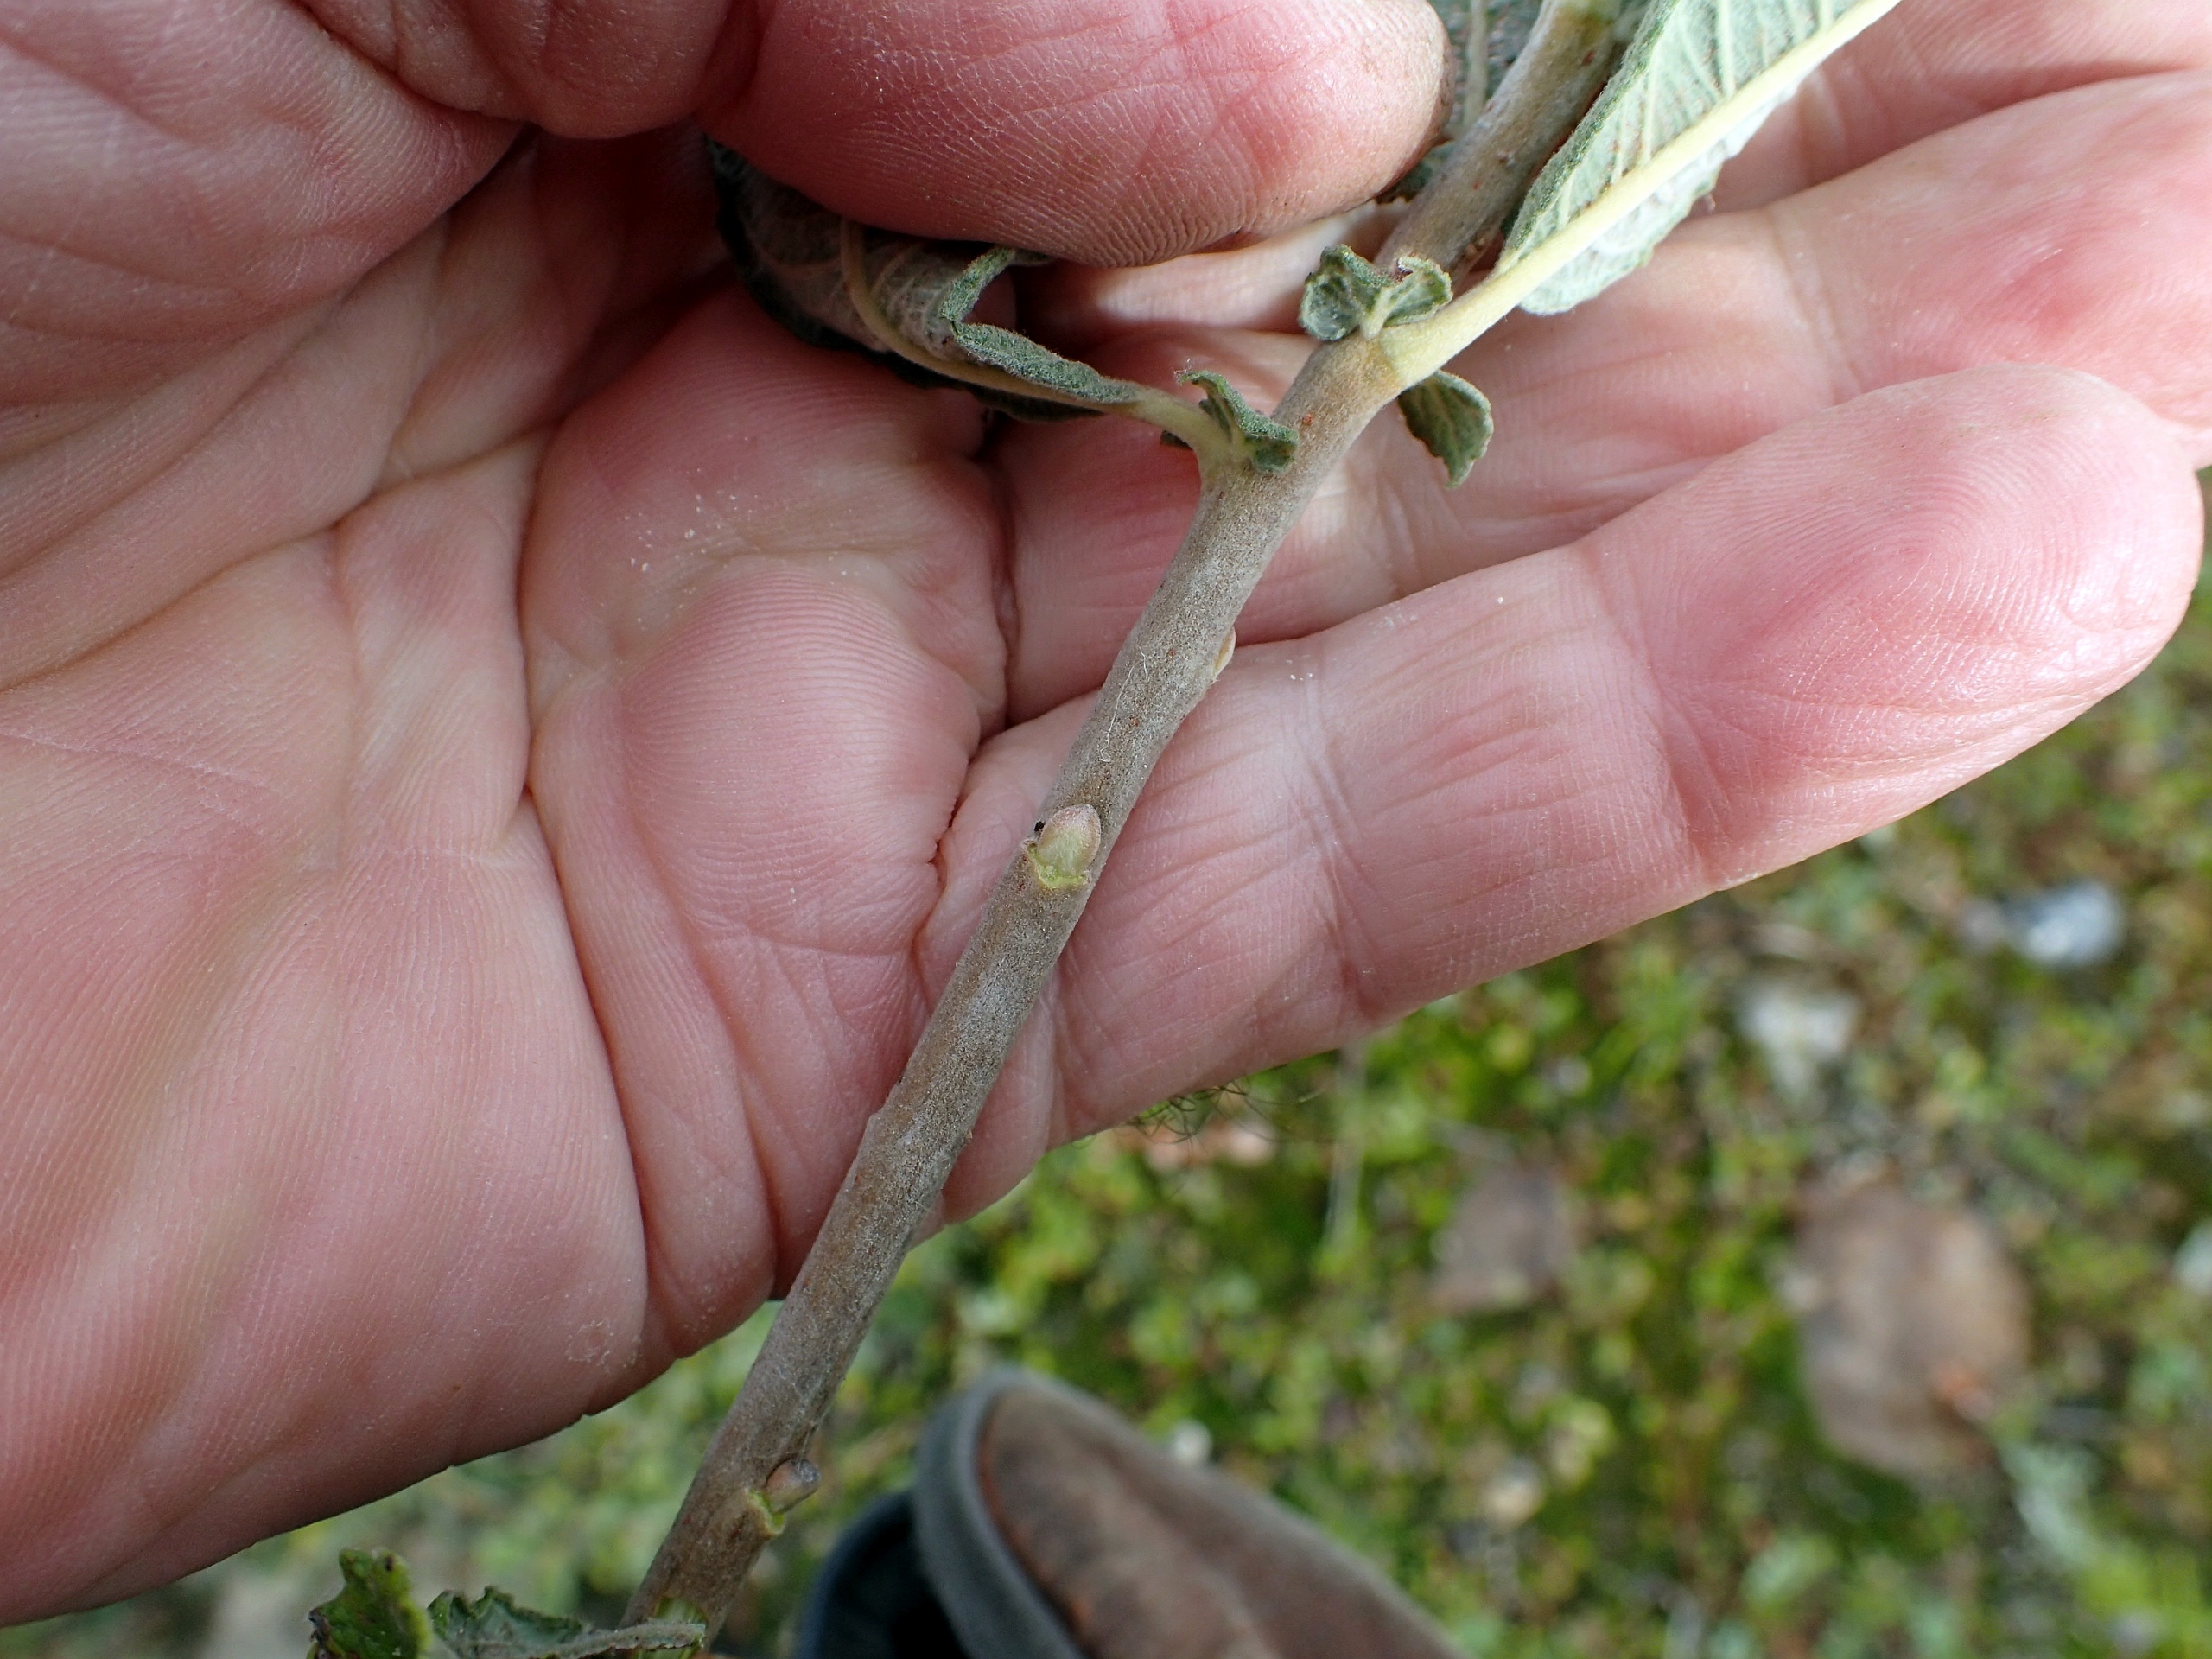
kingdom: Plantae
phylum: Tracheophyta
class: Magnoliopsida
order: Malpighiales
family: Salicaceae
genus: Salix
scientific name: Salix aurita
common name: Øret pil
